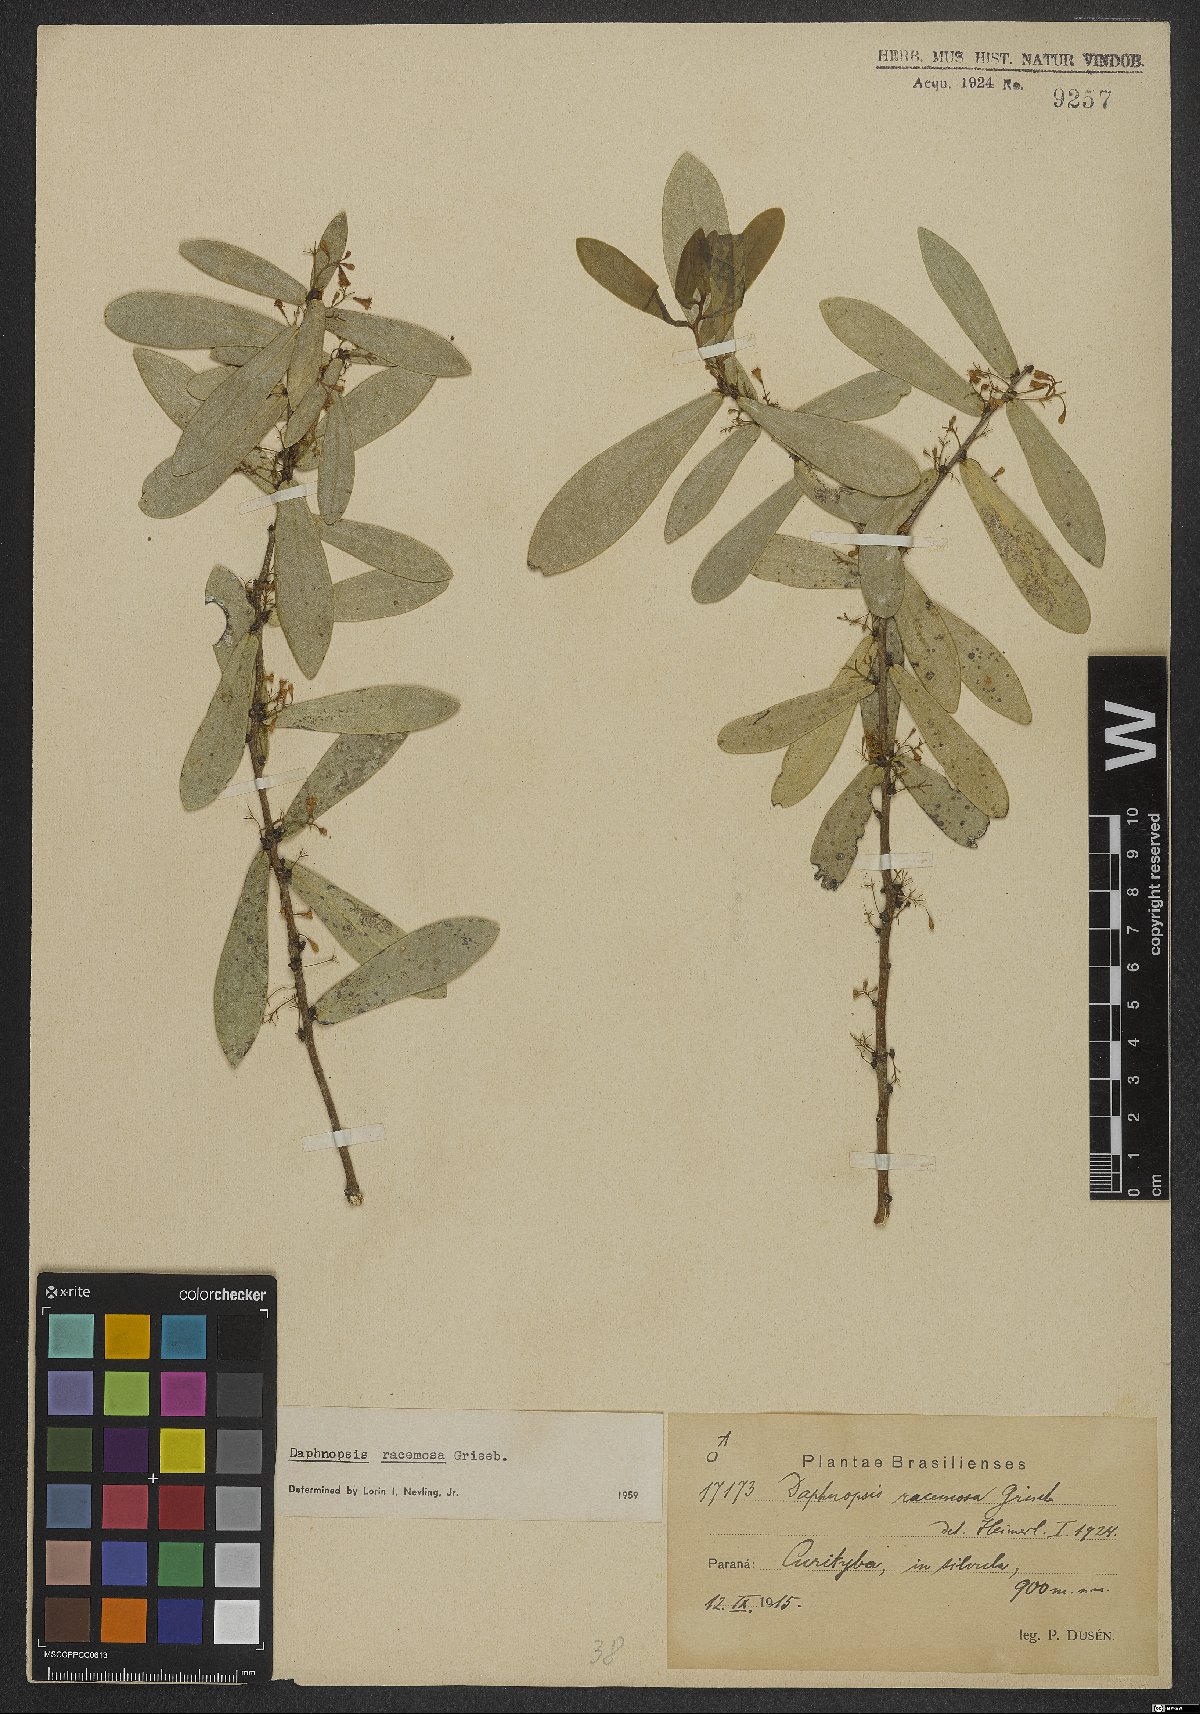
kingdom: Plantae
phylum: Tracheophyta
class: Magnoliopsida
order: Malvales
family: Thymelaeaceae
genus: Daphnopsis
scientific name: Daphnopsis racemosa
